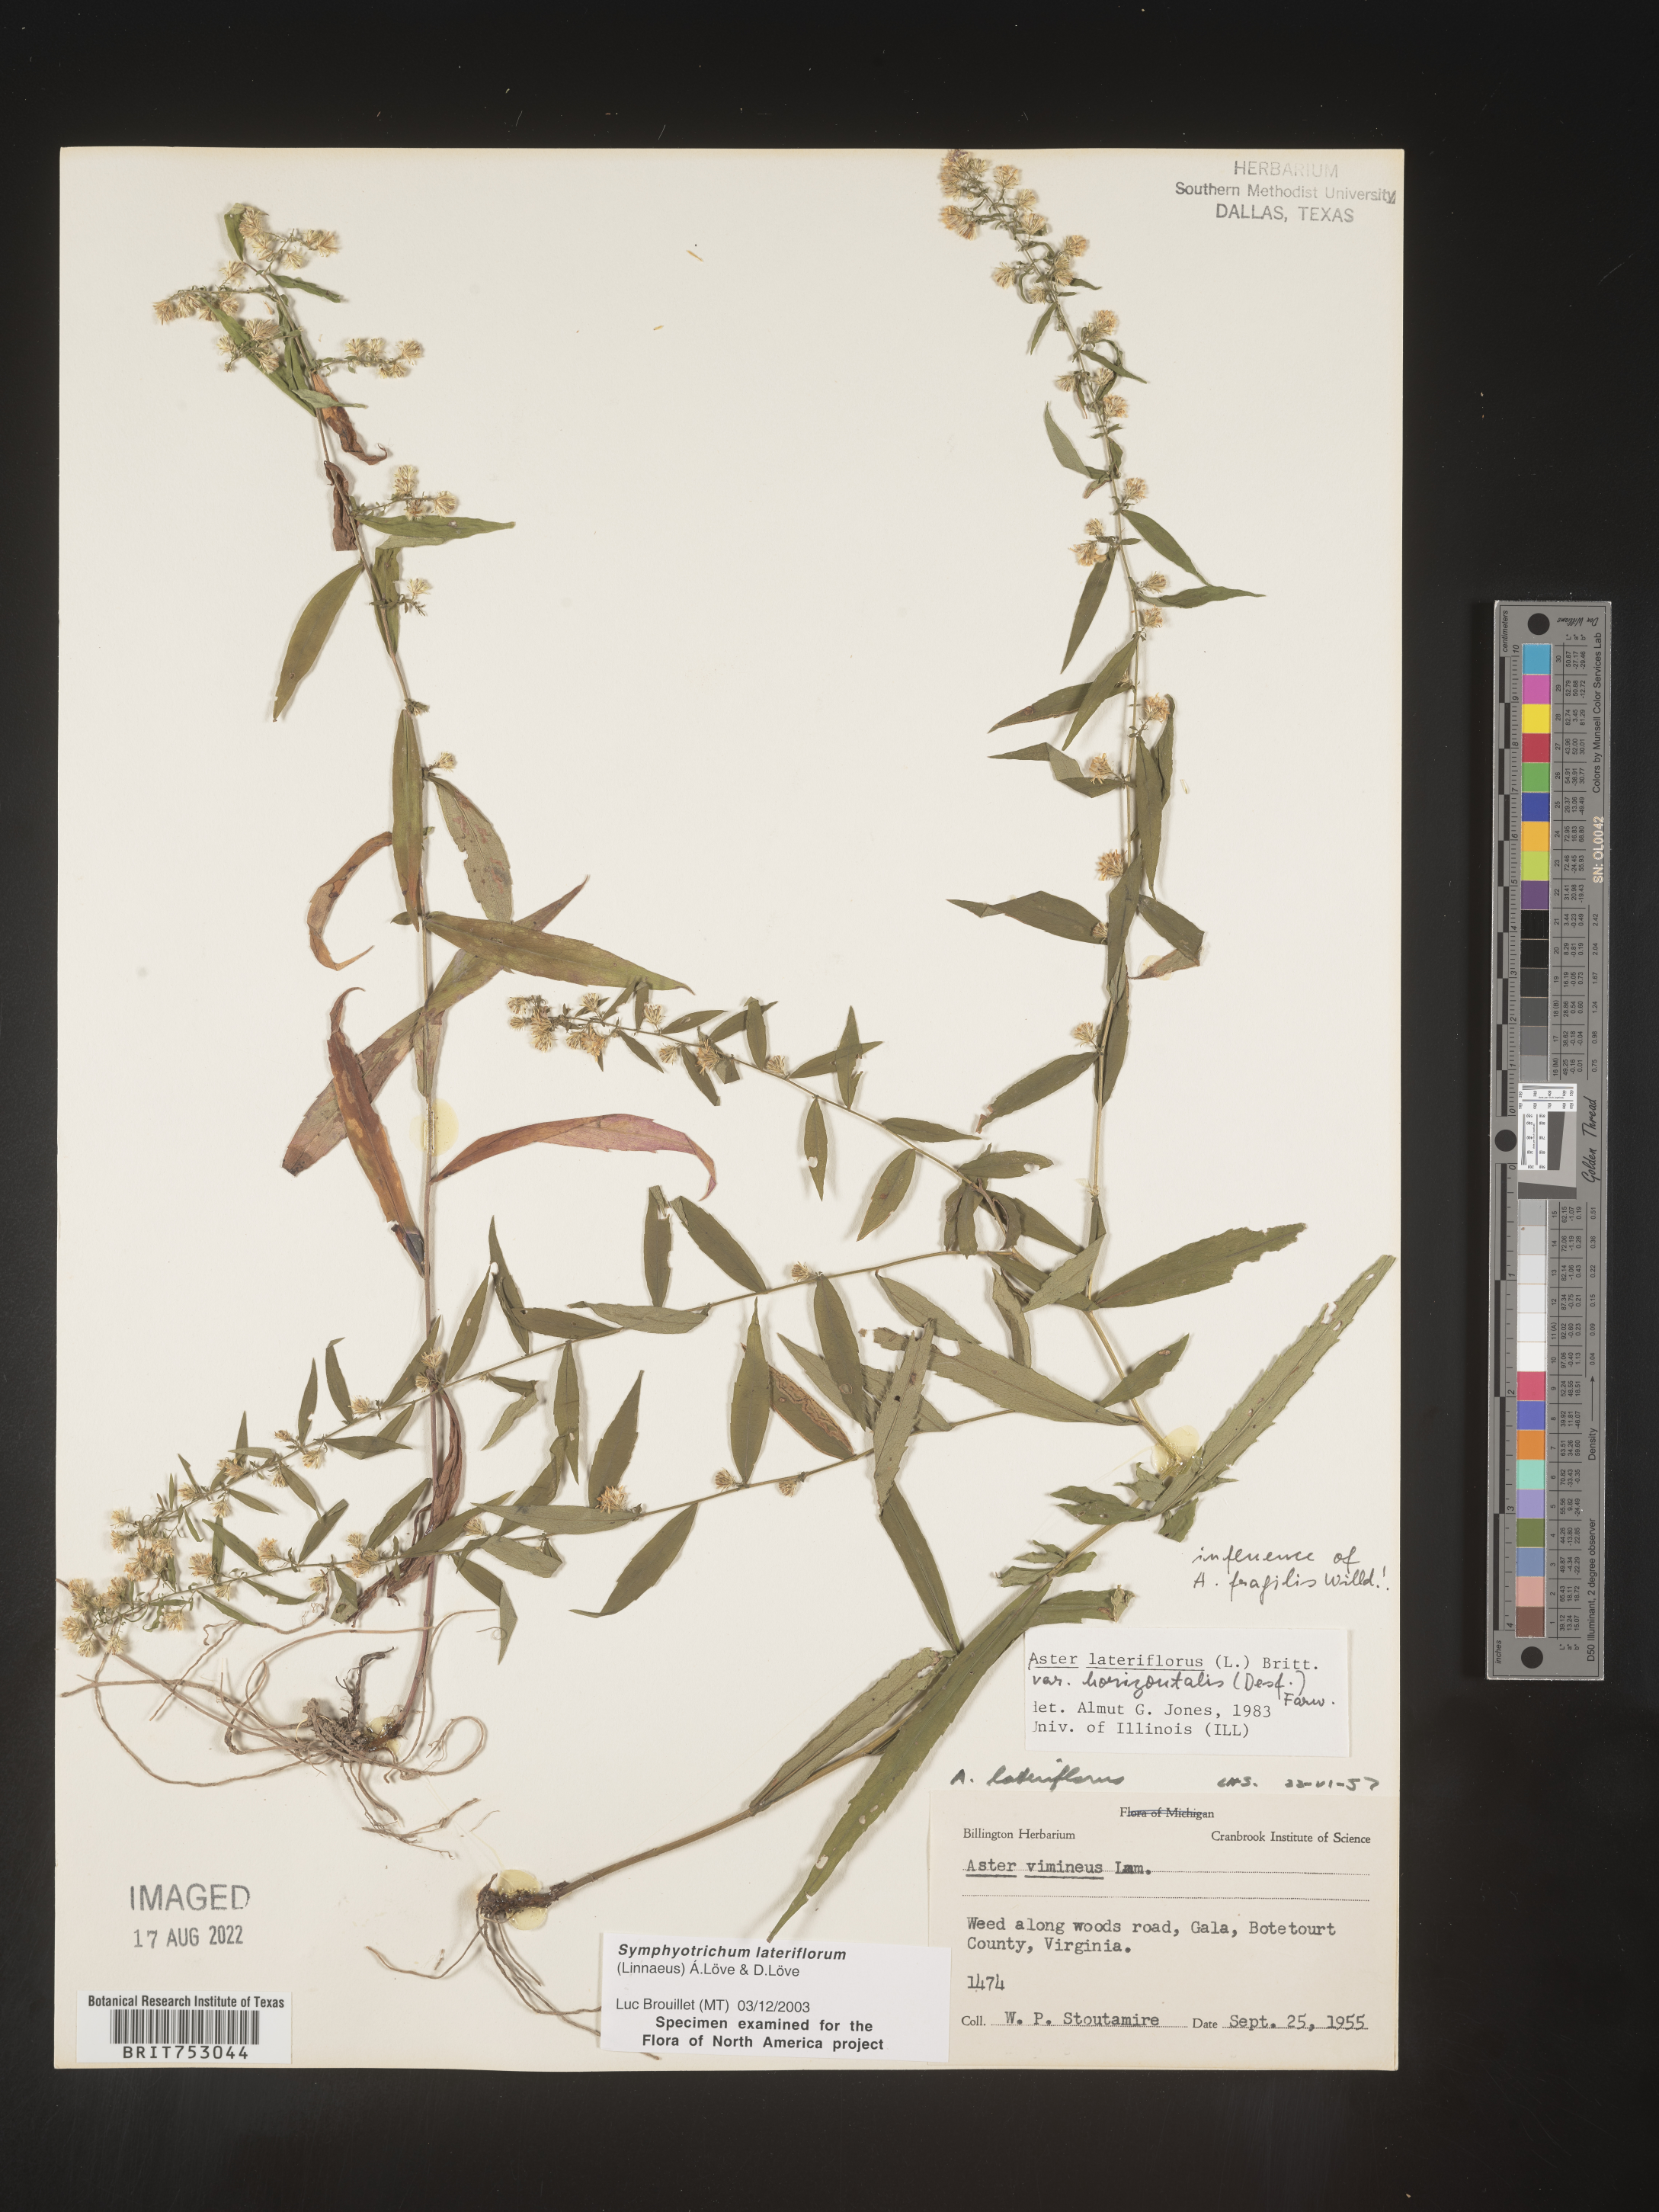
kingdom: Plantae
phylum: Tracheophyta
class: Magnoliopsida
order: Asterales
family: Asteraceae
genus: Symphyotrichum
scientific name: Symphyotrichum lateriflorum
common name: Calico aster
